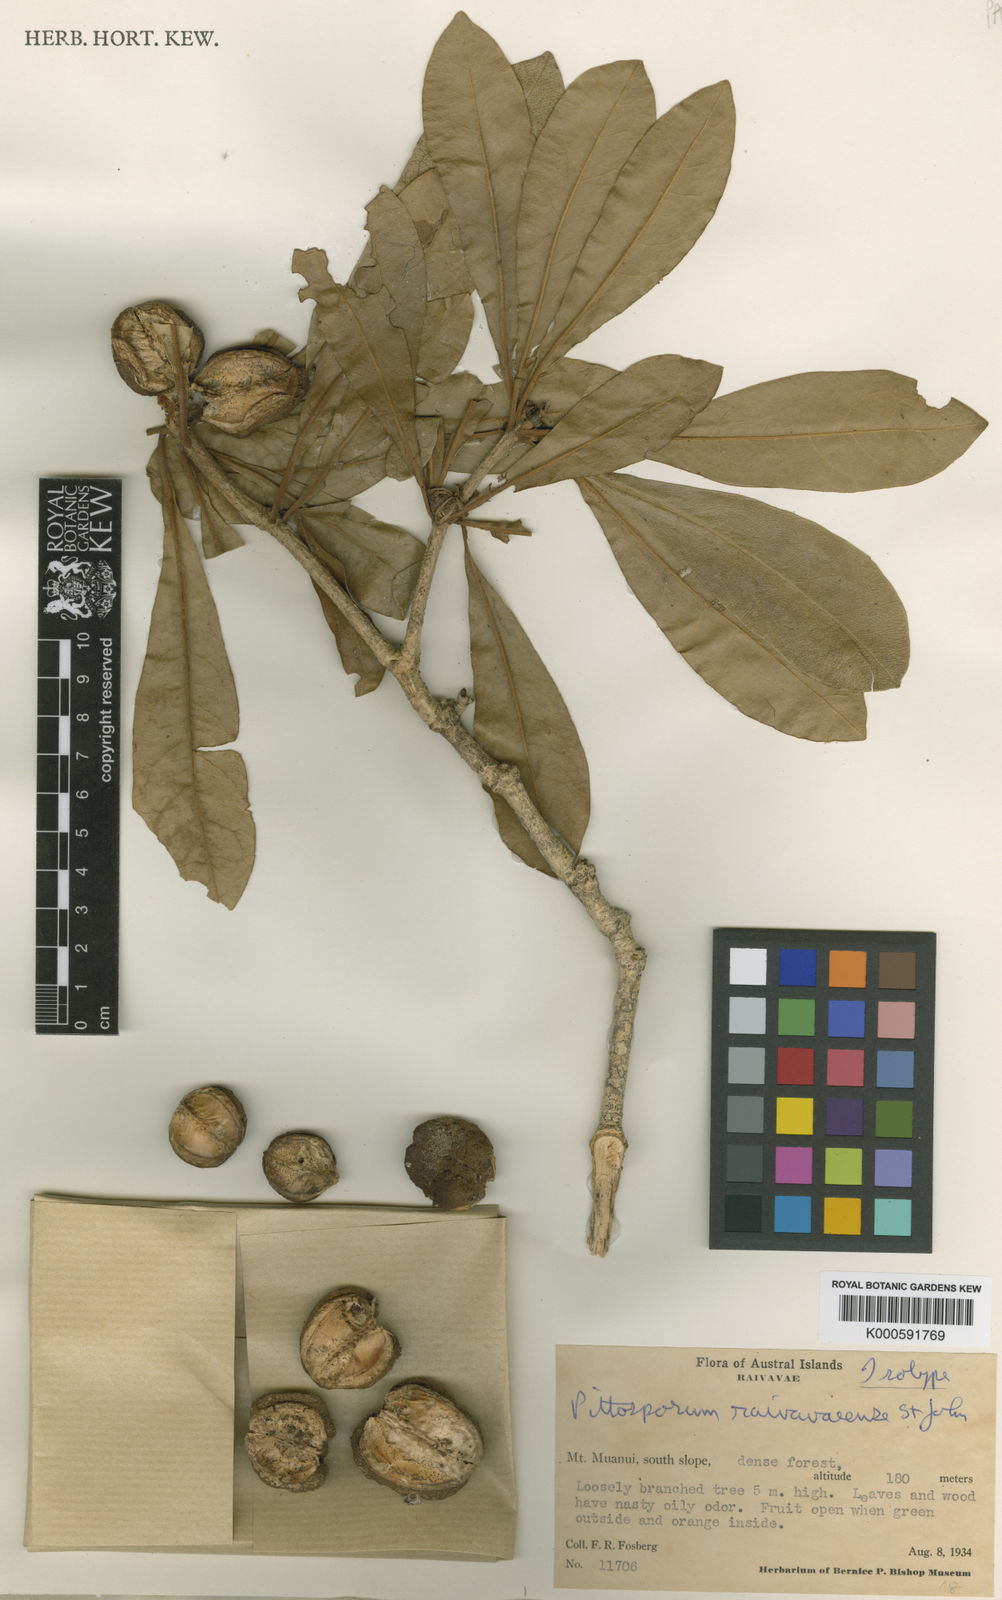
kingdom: Plantae
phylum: Tracheophyta
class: Magnoliopsida
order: Apiales
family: Pittosporaceae
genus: Pittosporum
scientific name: Pittosporum raivavaeense
